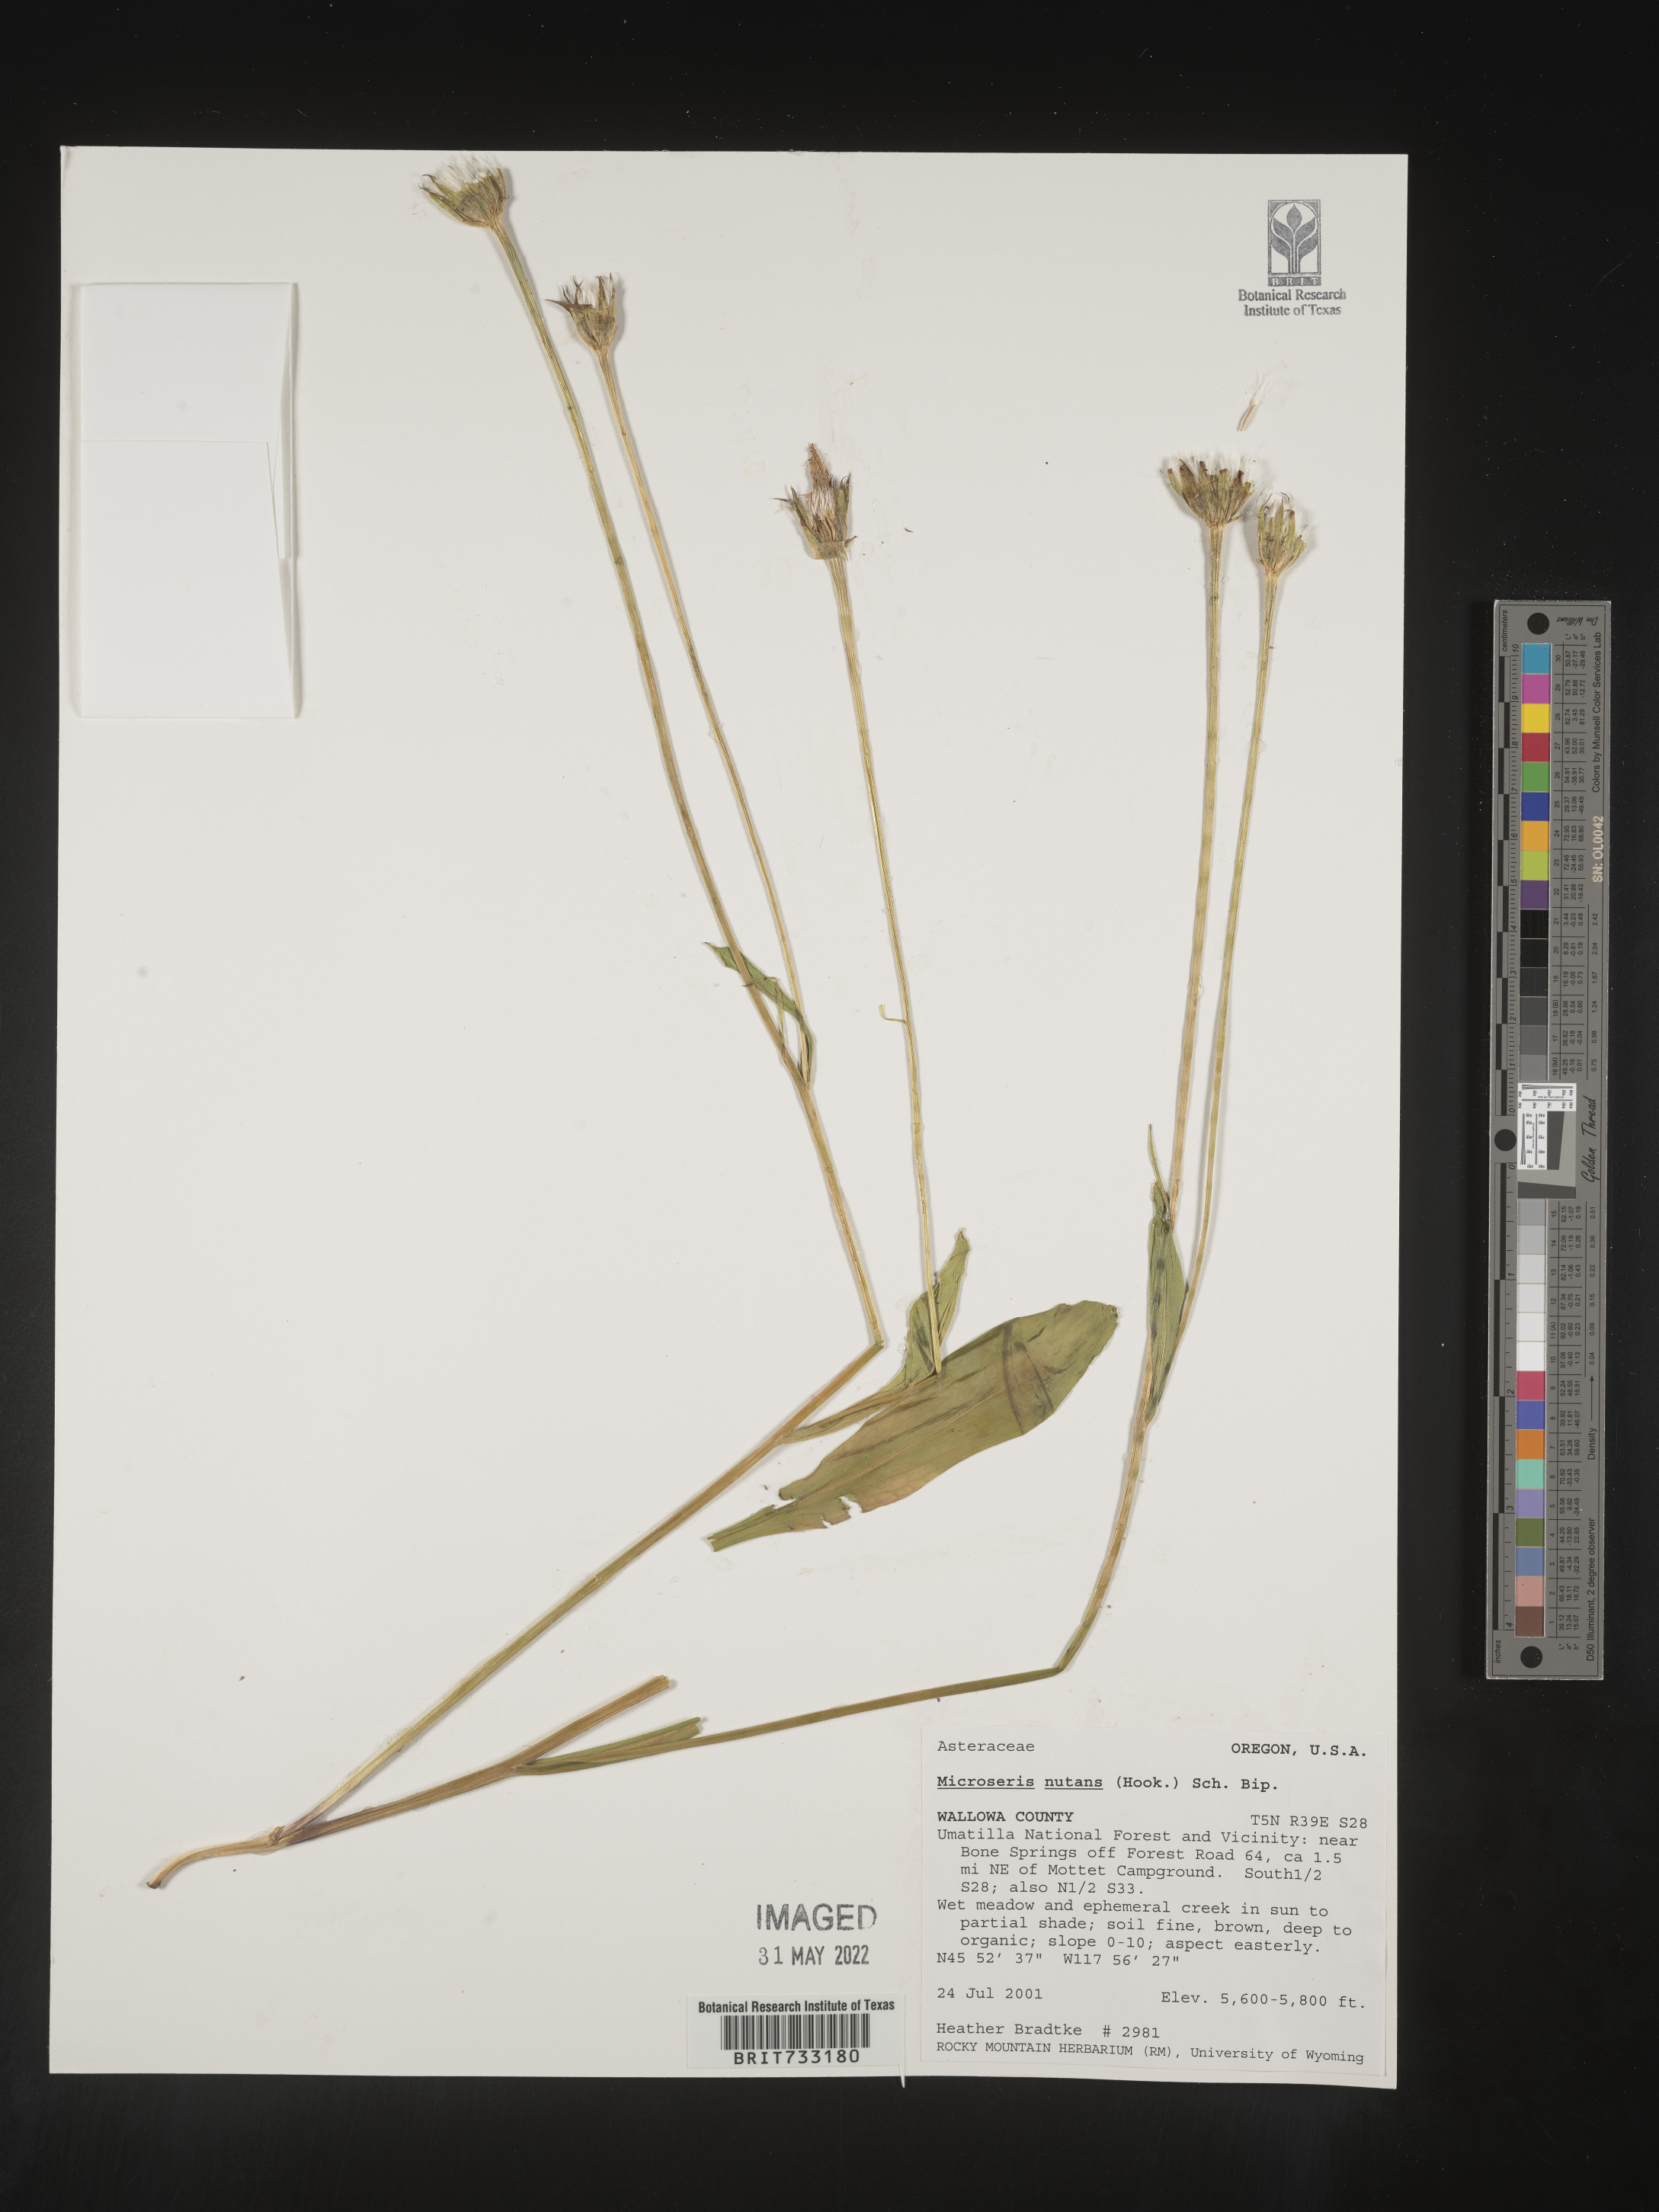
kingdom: Plantae
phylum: Tracheophyta
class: Magnoliopsida
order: Asterales
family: Asteraceae
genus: Microseris
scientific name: Microseris nutans
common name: Nodding microseris
